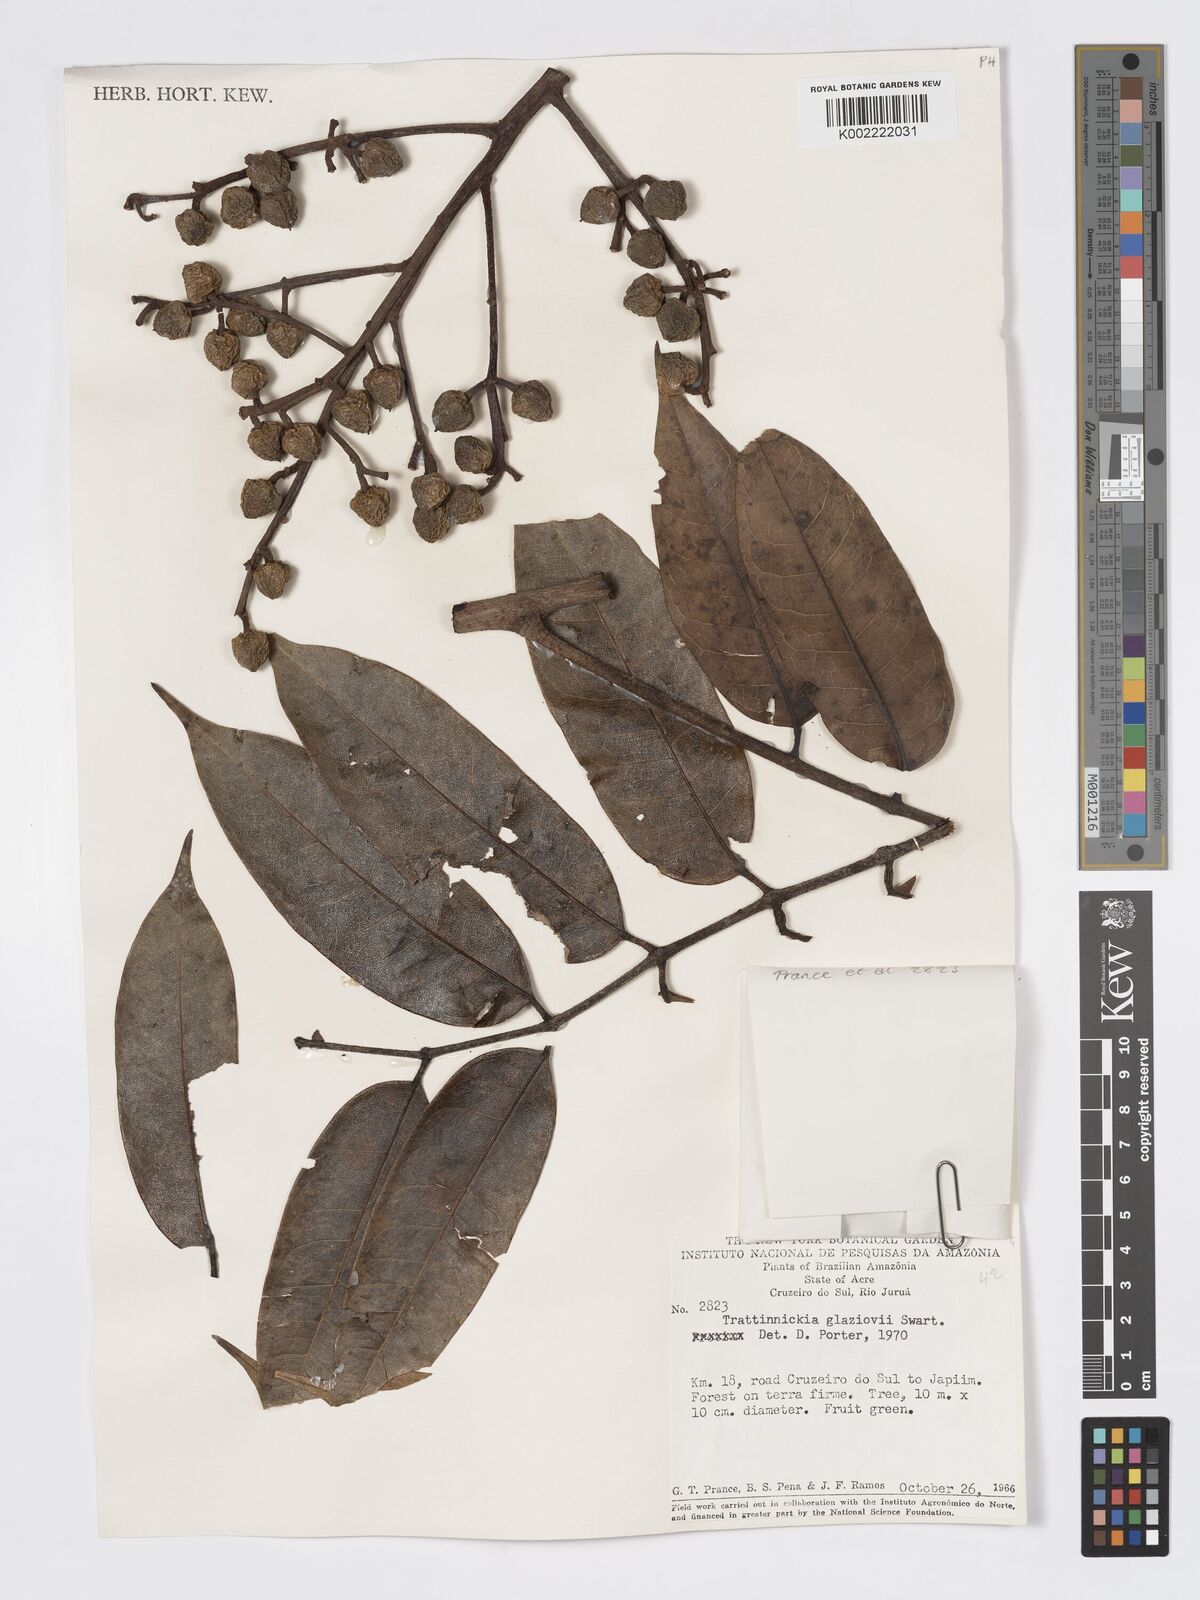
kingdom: Plantae
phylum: Tracheophyta
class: Magnoliopsida
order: Sapindales
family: Burseraceae
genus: Trattinnickia
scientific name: Trattinnickia glaziovii
